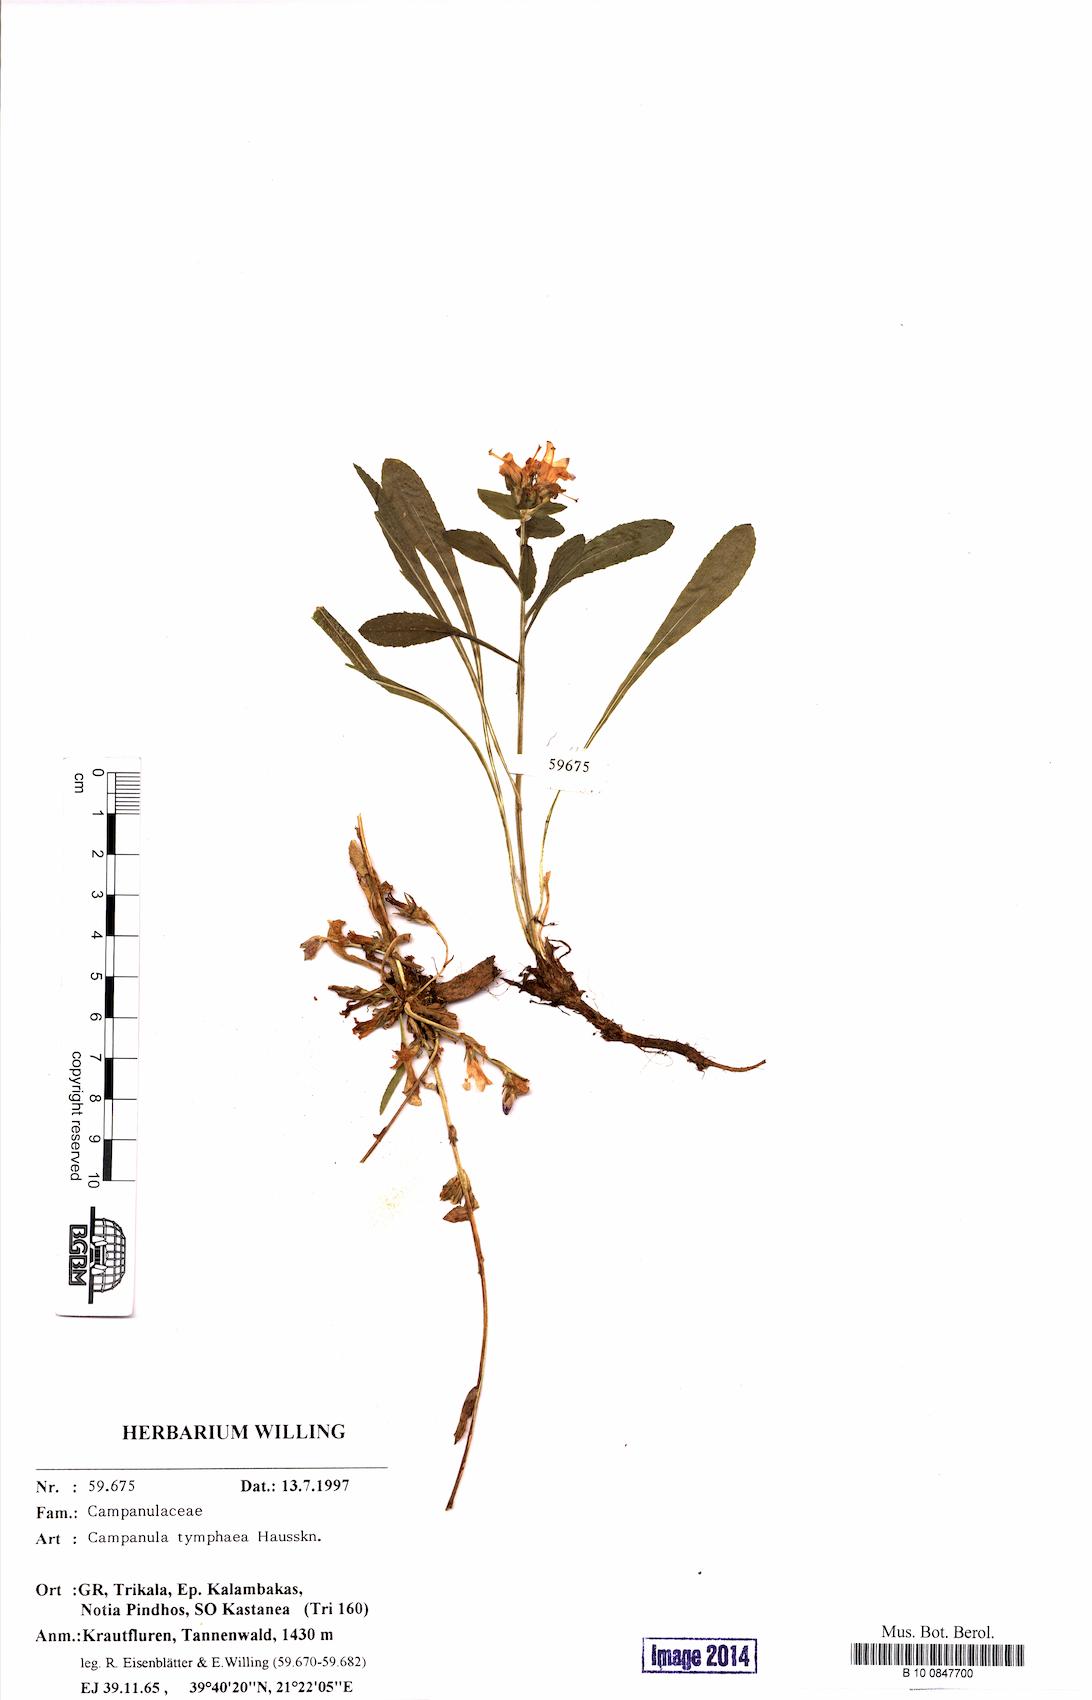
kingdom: Plantae
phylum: Tracheophyta
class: Magnoliopsida
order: Asterales
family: Campanulaceae
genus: Campanula
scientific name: Campanula tymphaea
